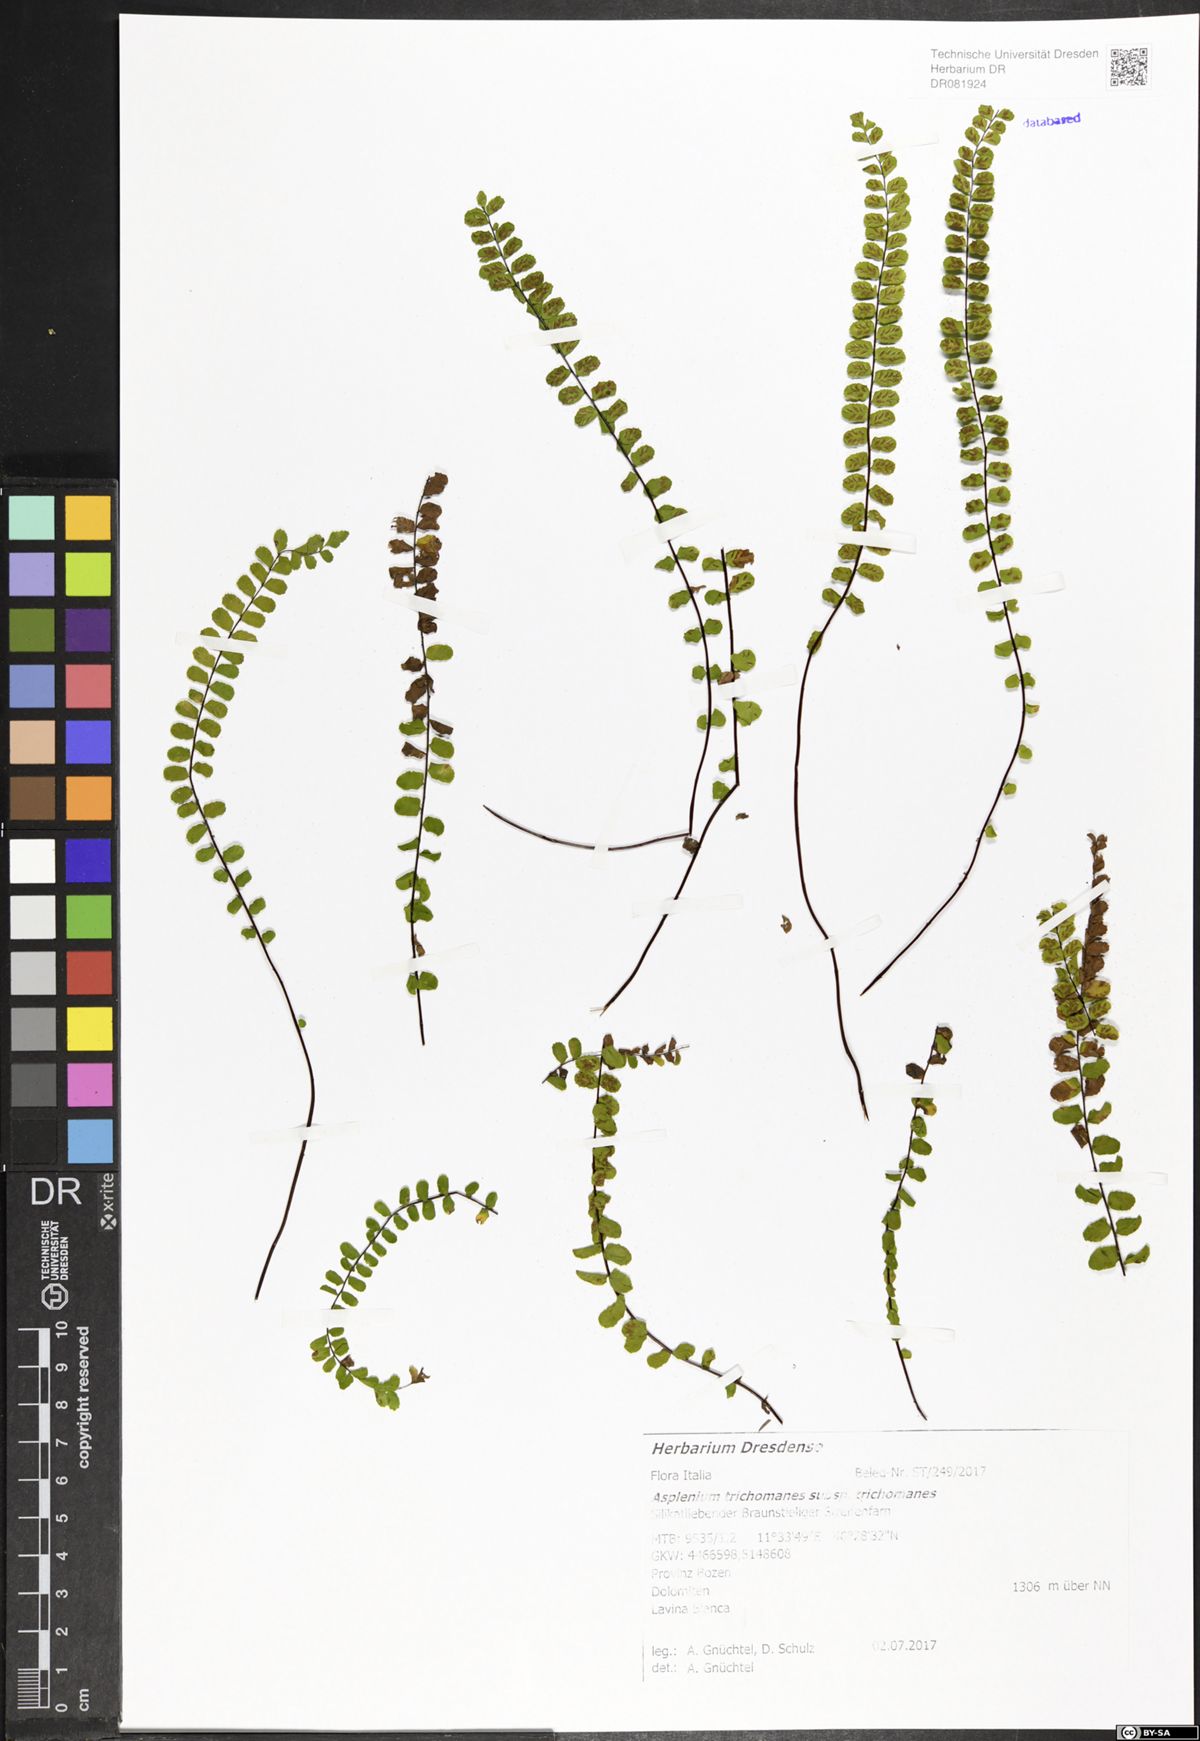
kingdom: Plantae
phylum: Tracheophyta
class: Polypodiopsida
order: Polypodiales
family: Aspleniaceae
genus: Asplenium
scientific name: Asplenium trichomanes
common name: Maidenhair spleenwort
